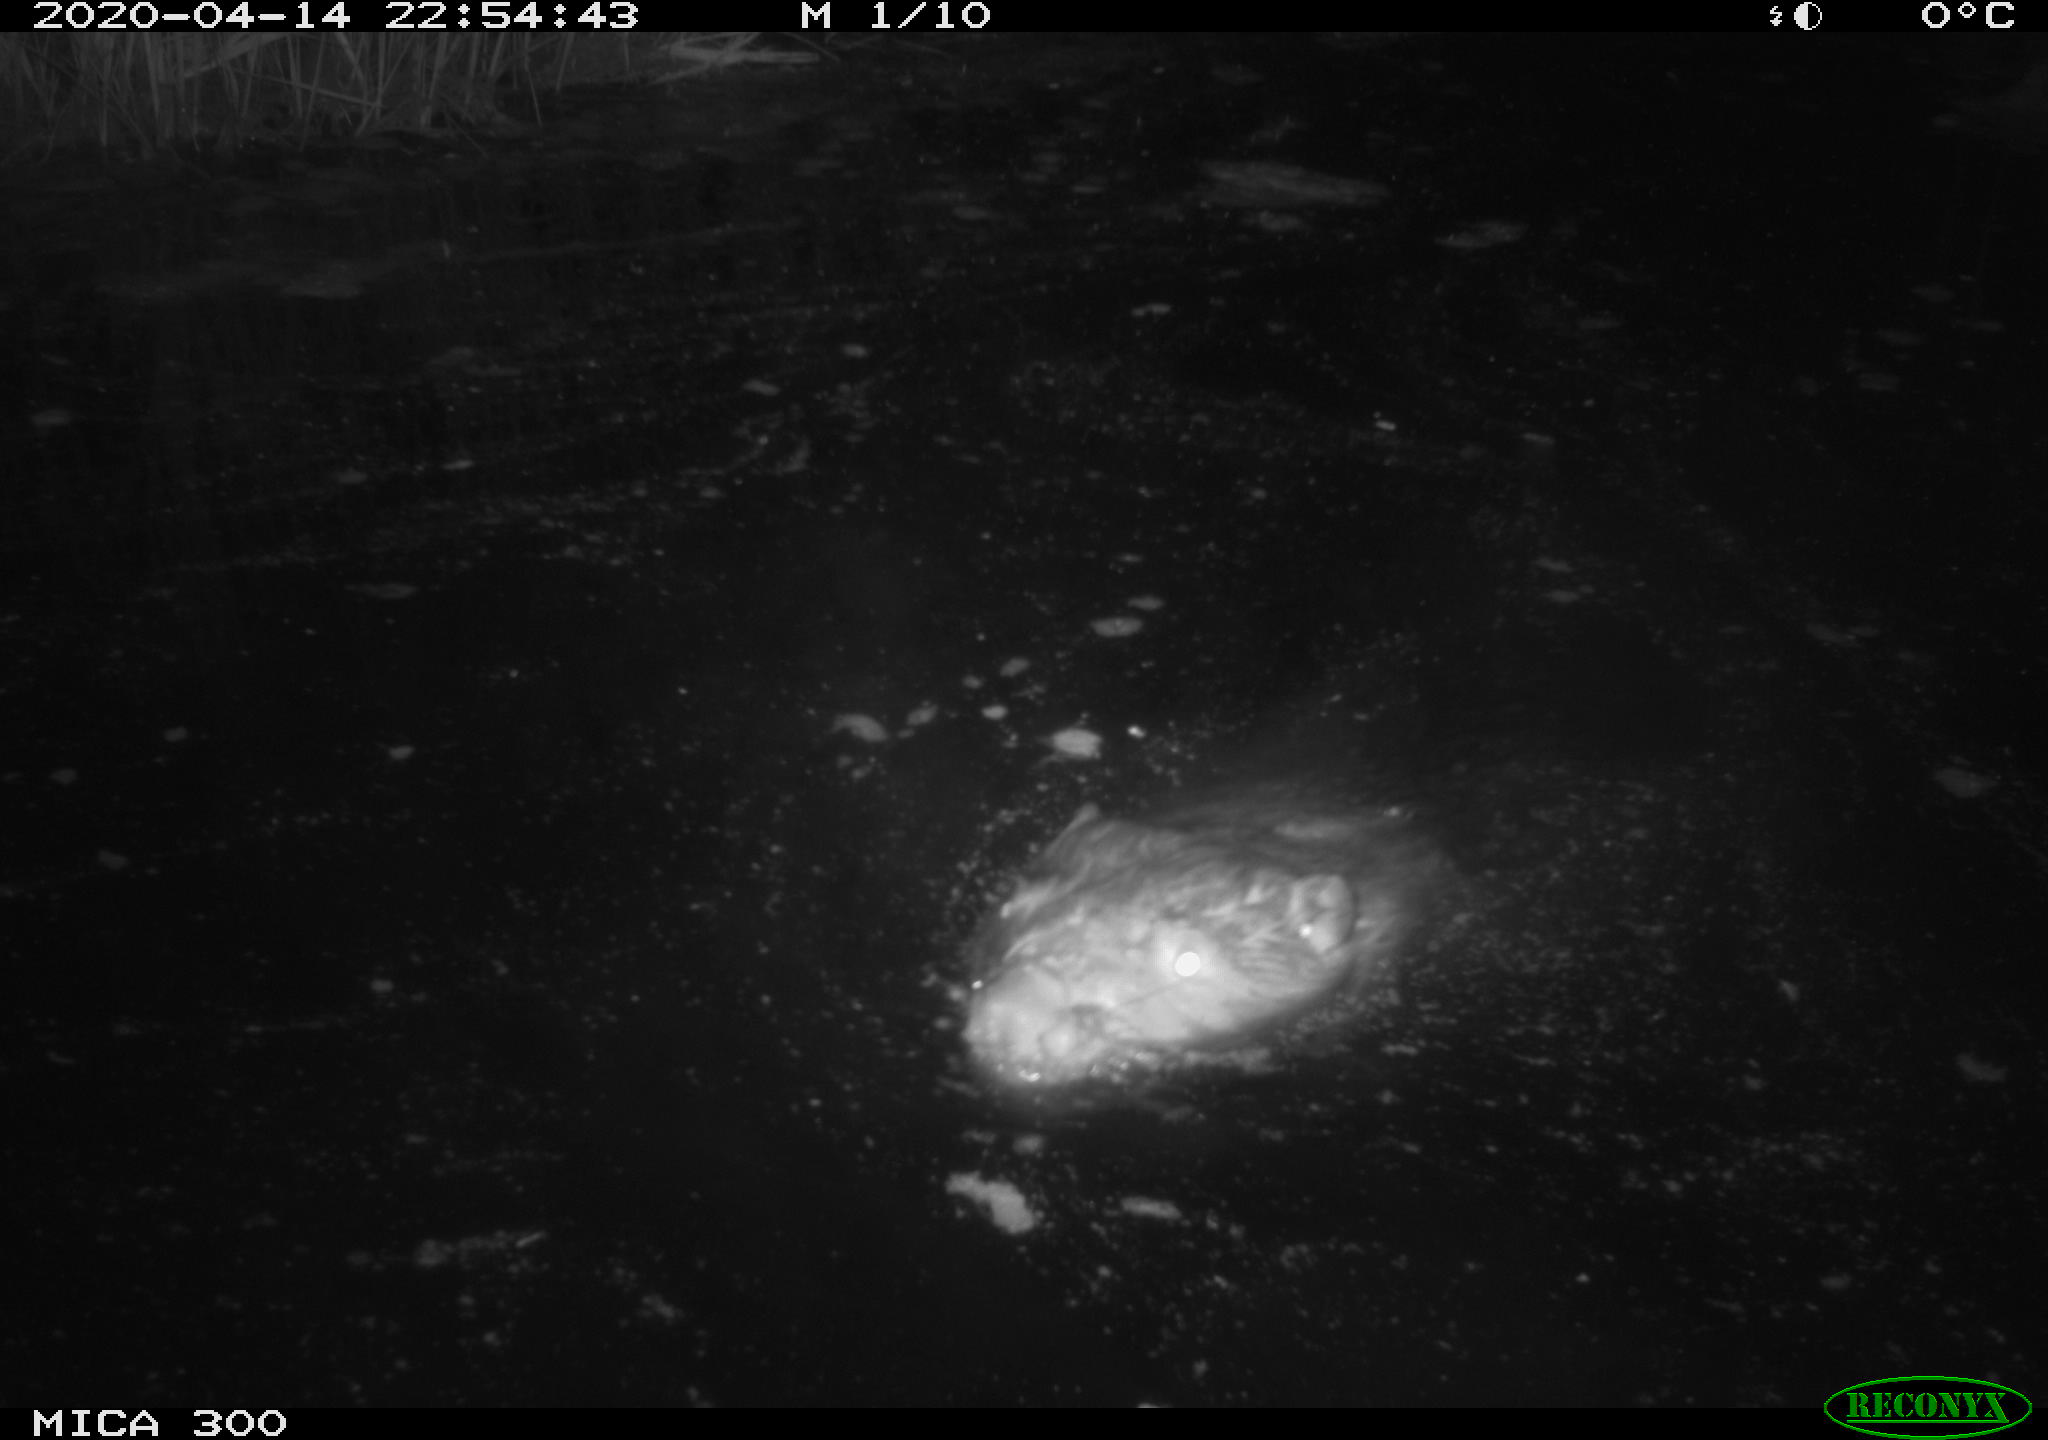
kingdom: Animalia
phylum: Chordata
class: Mammalia
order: Rodentia
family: Castoridae
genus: Castor
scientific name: Castor fiber
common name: Eurasian beaver
